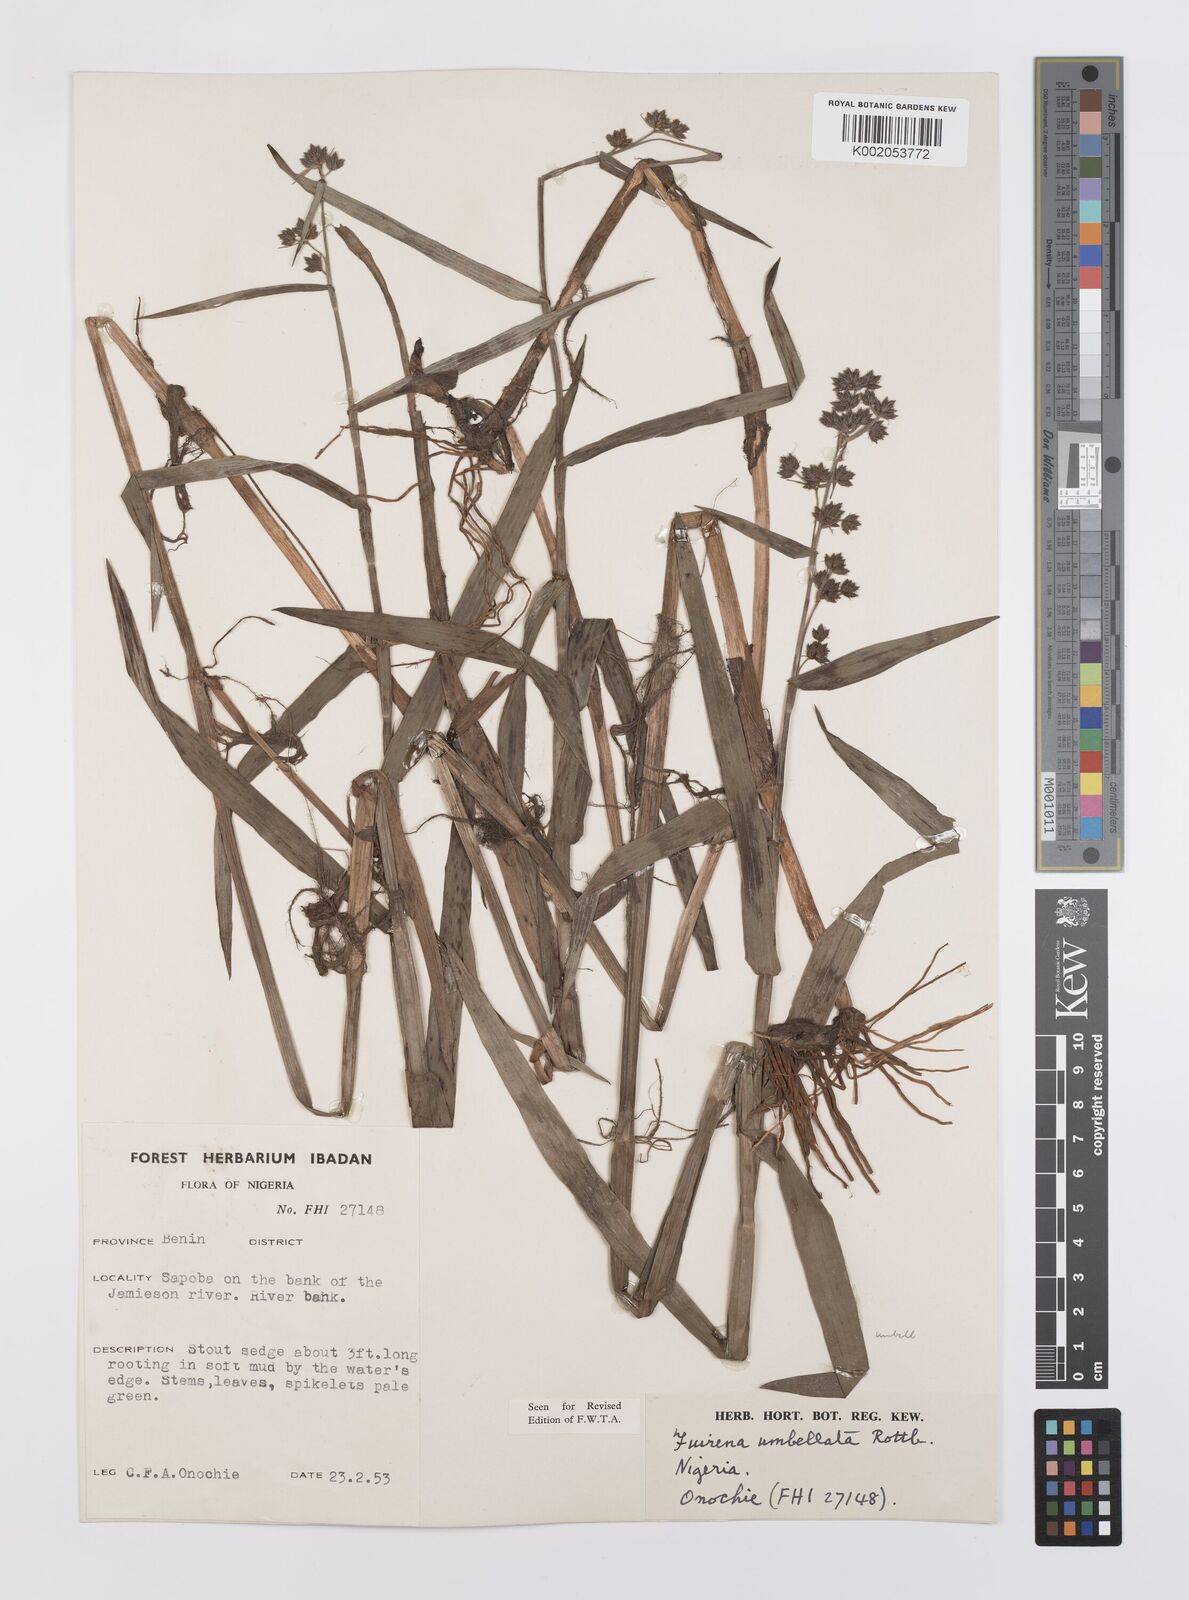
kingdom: Plantae
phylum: Tracheophyta
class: Liliopsida
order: Poales
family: Cyperaceae
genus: Fuirena
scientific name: Fuirena umbellata
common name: Yefen
